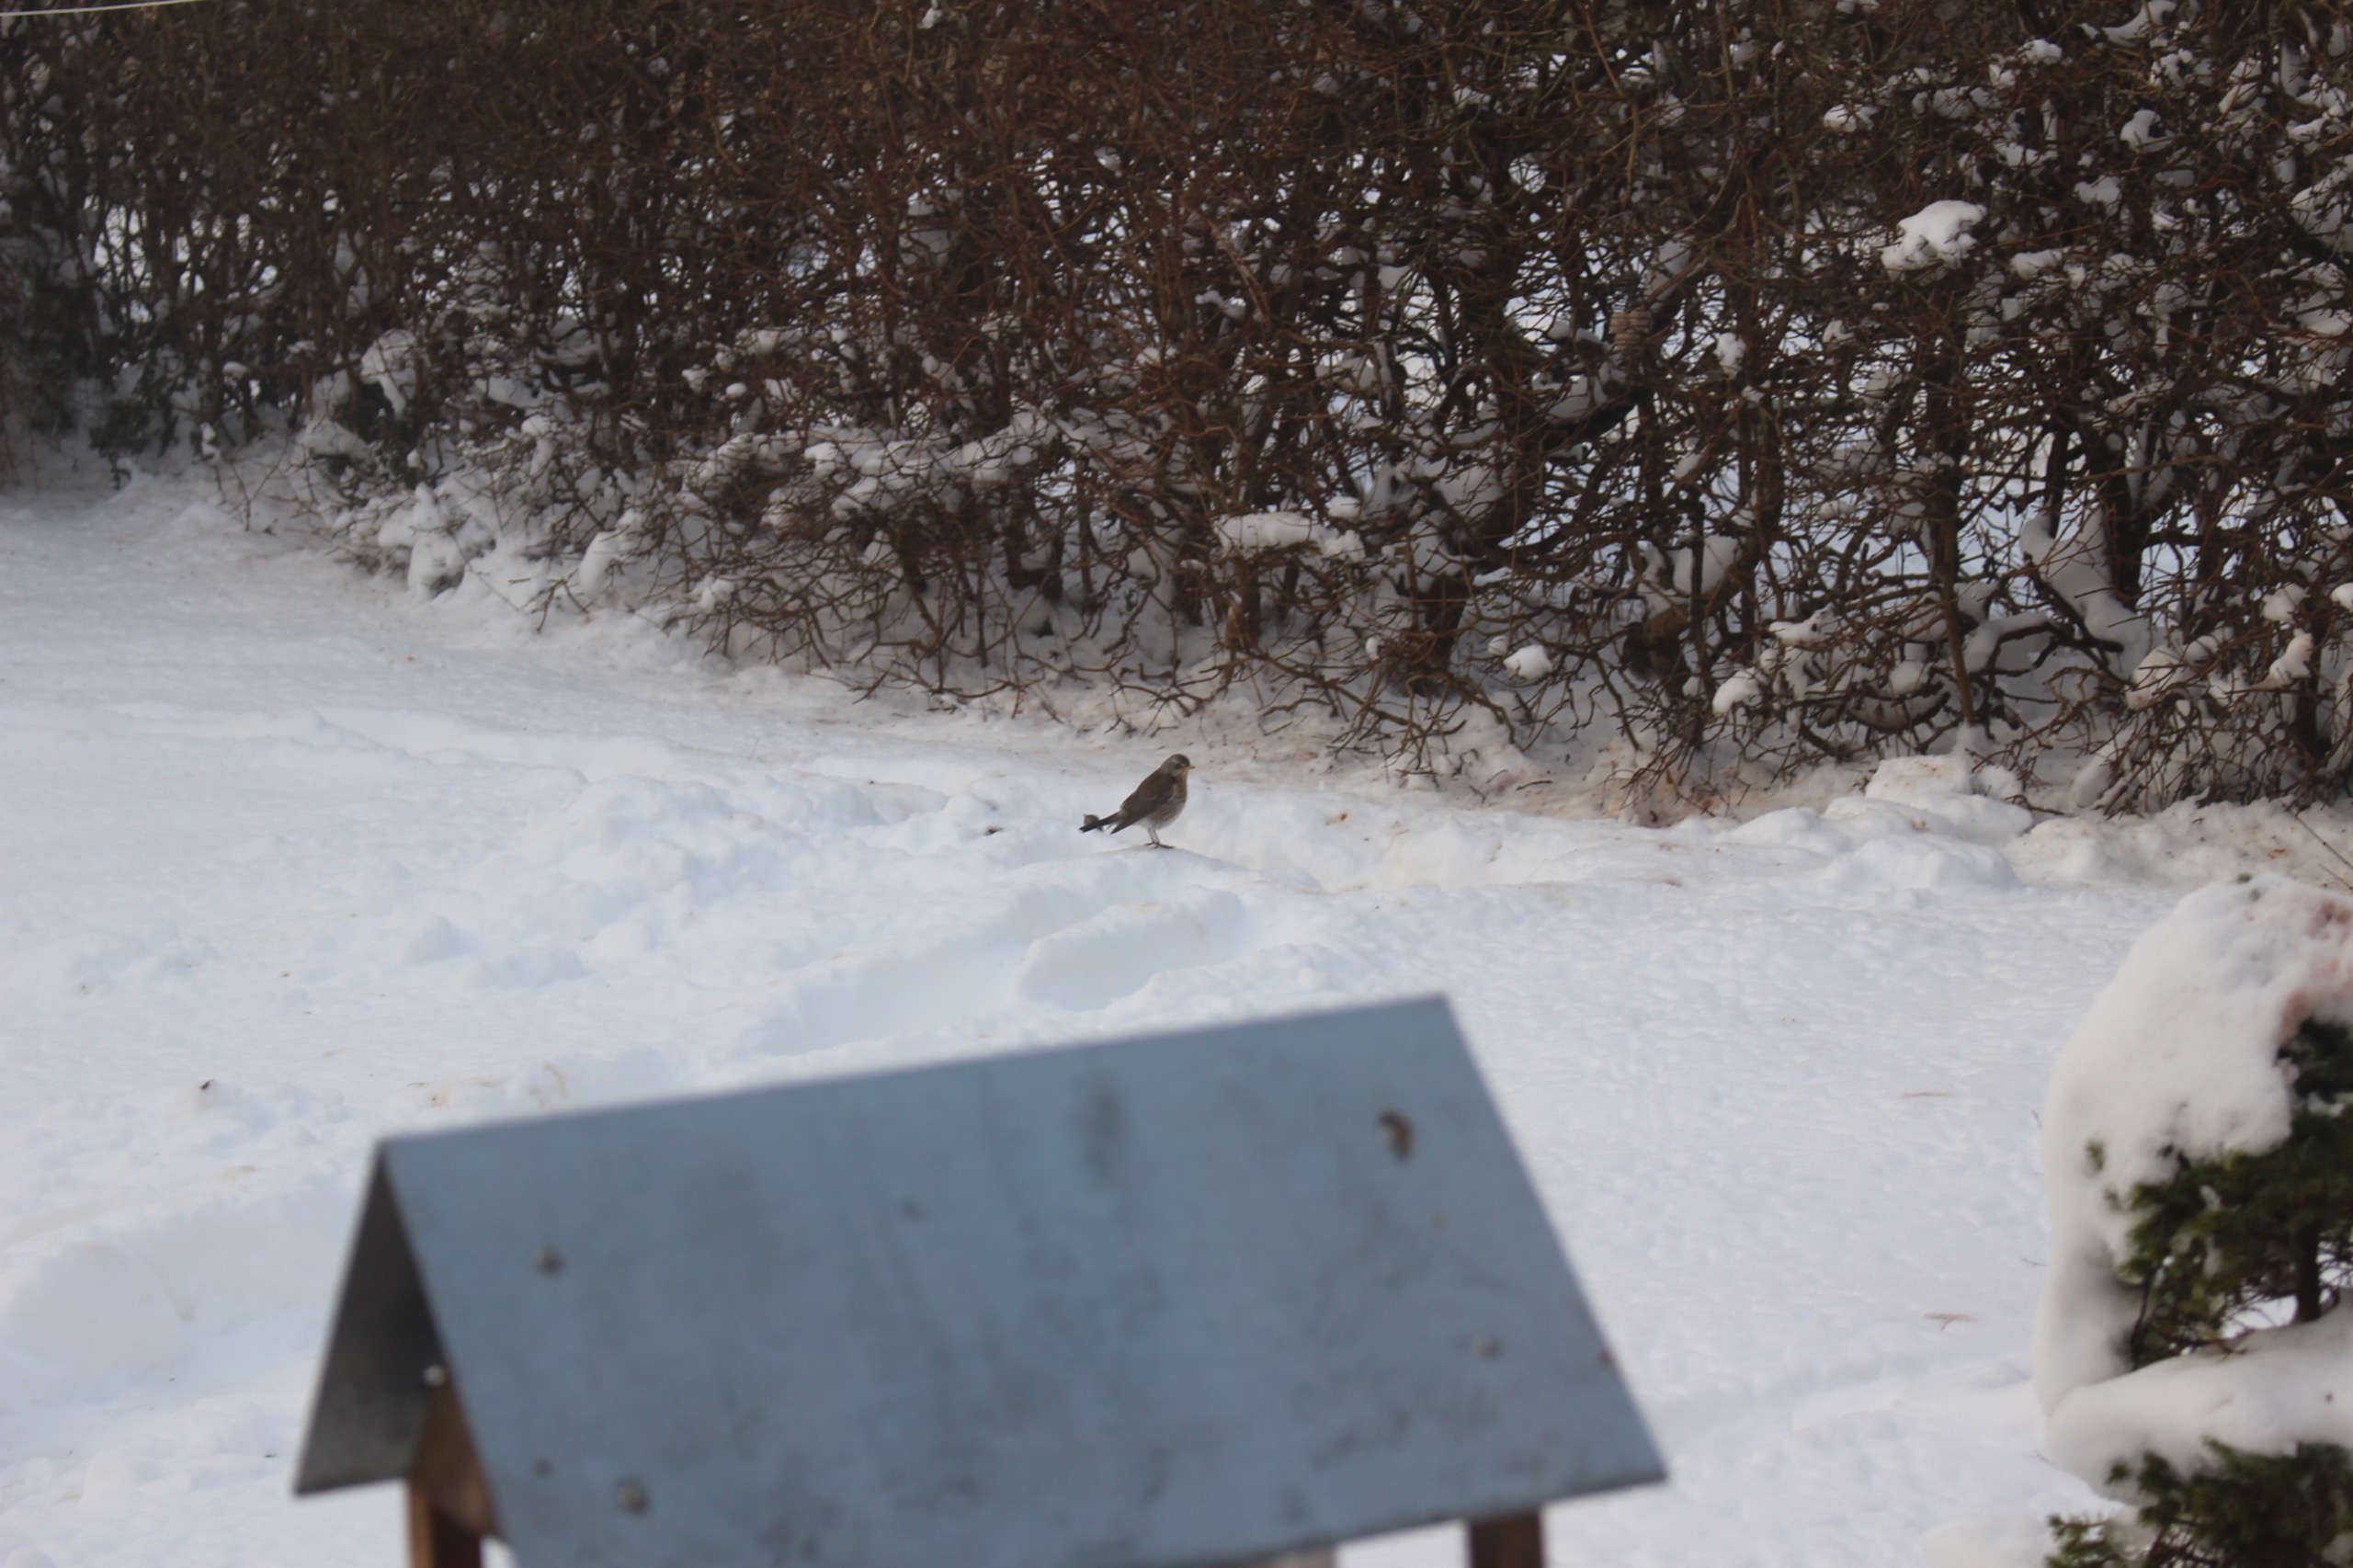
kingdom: Animalia
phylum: Chordata
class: Aves
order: Passeriformes
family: Turdidae
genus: Turdus
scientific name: Turdus pilaris
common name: Sjagger
